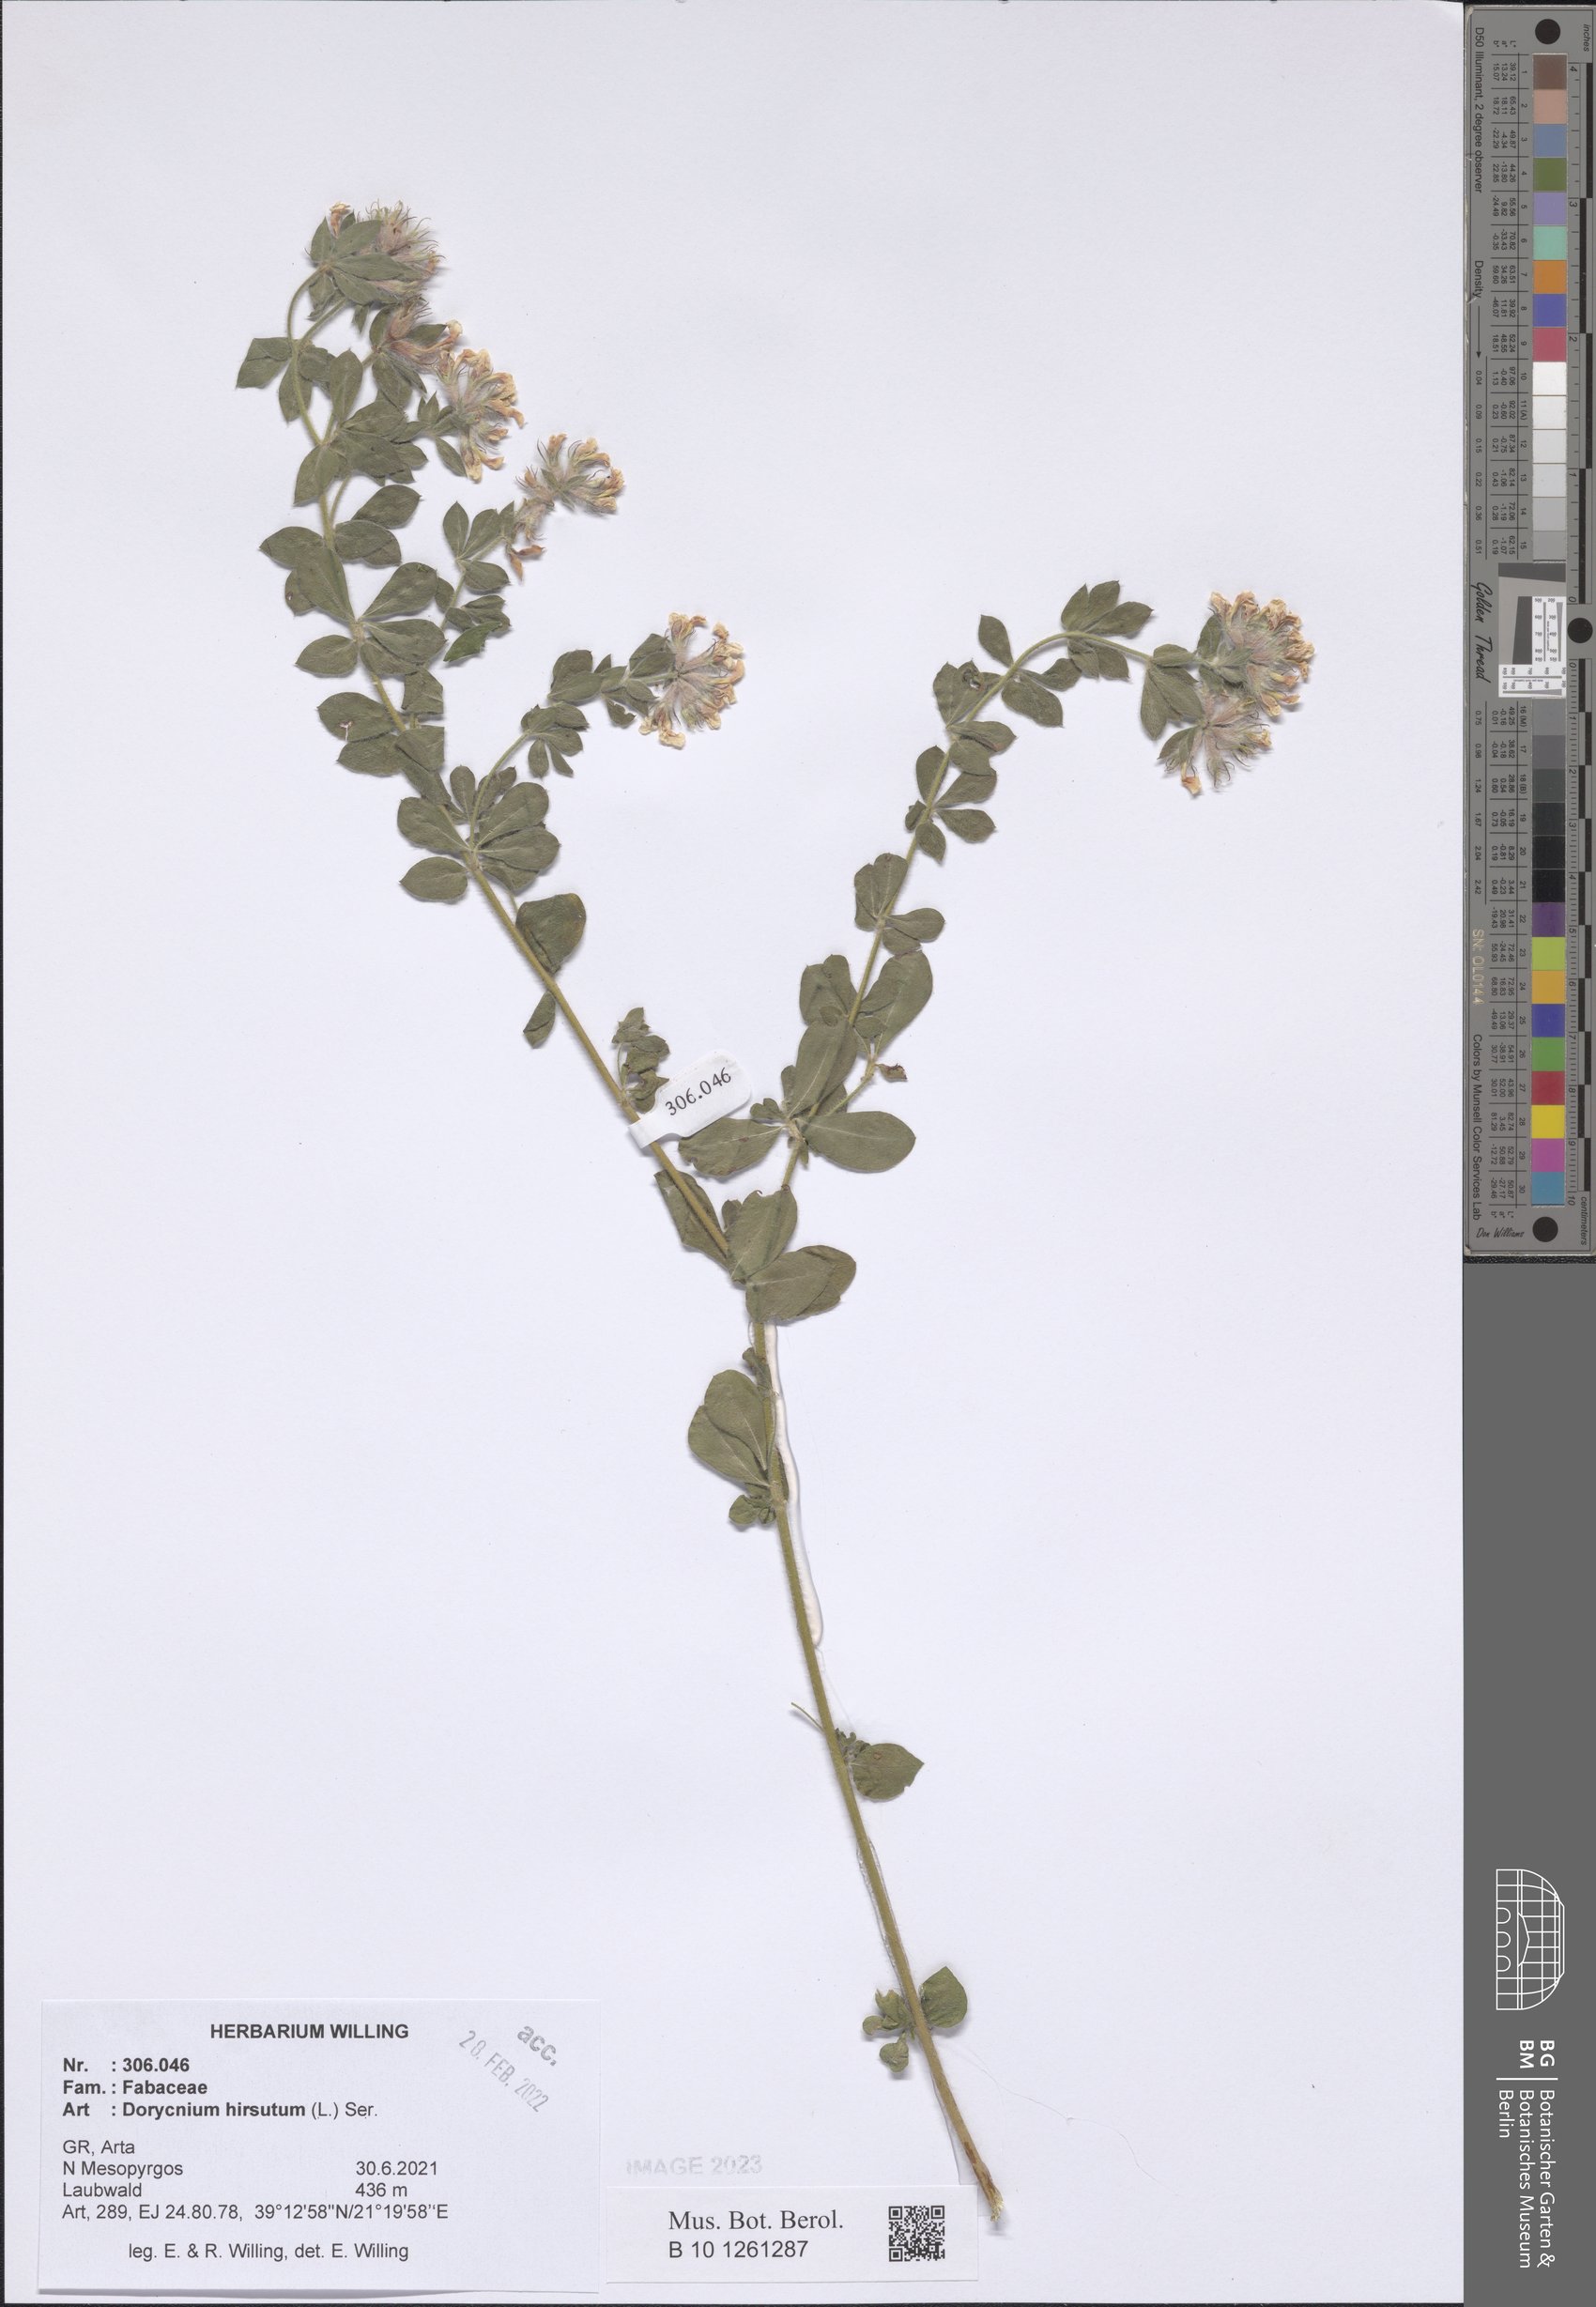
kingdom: Plantae
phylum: Tracheophyta
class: Magnoliopsida
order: Fabales
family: Fabaceae
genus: Lotus
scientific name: Lotus hirsutus
